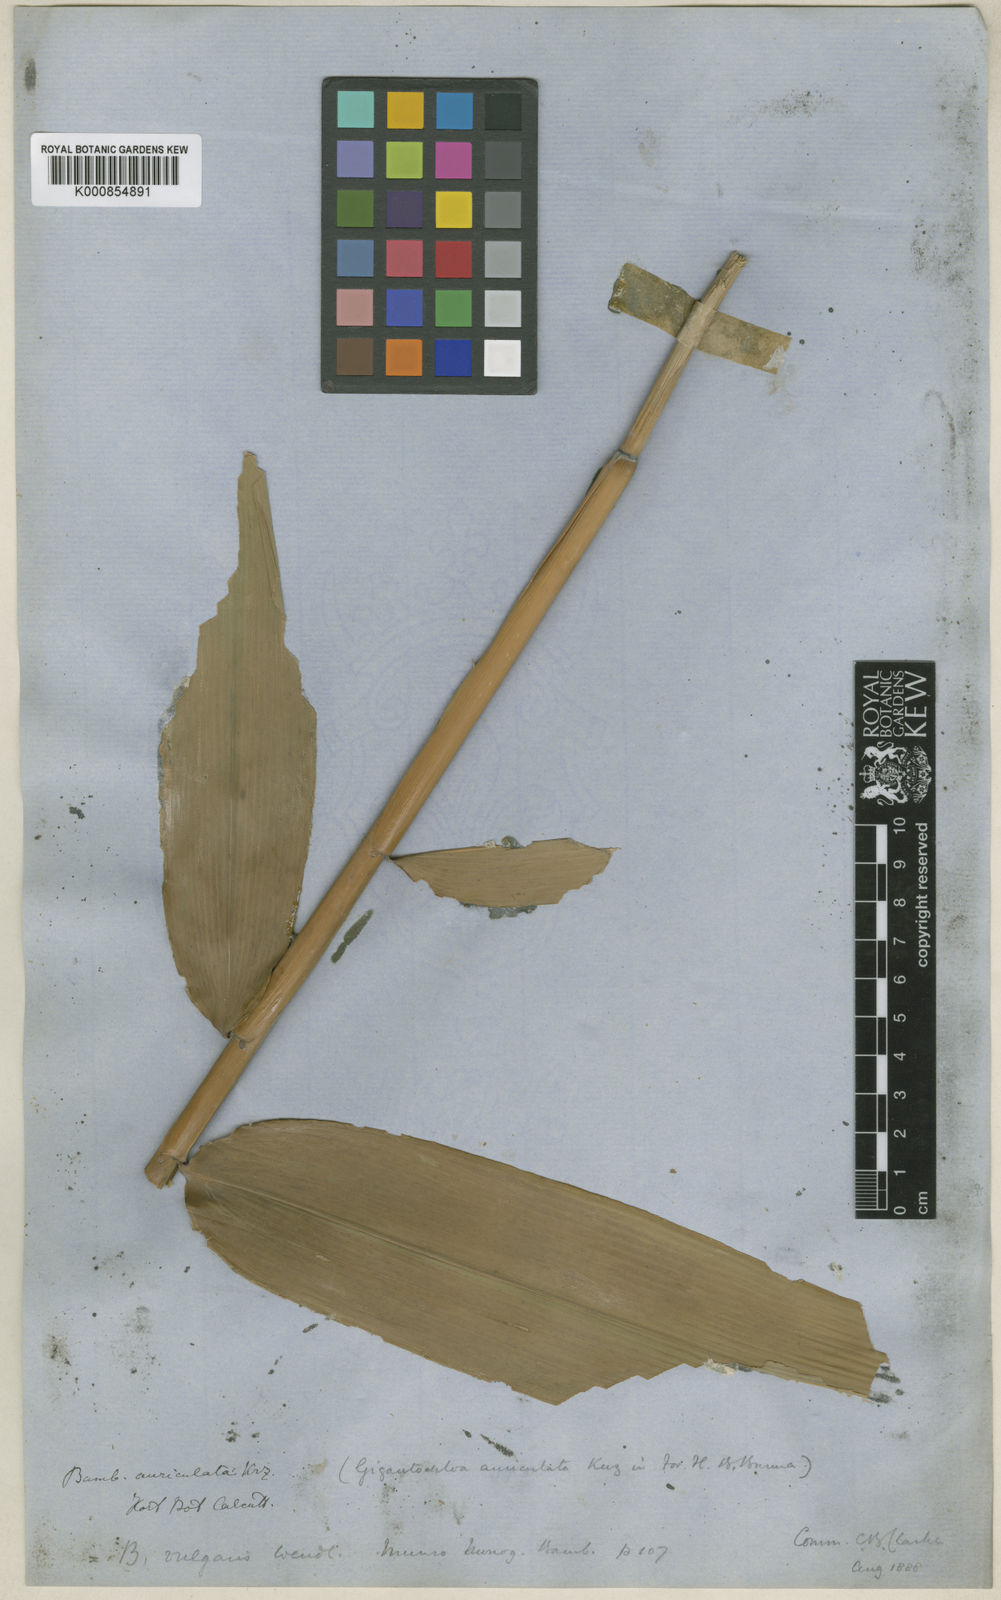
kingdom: Plantae
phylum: Tracheophyta
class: Liliopsida
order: Poales
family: Poaceae
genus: Gigantochloa
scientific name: Gigantochloa nigrociliata
